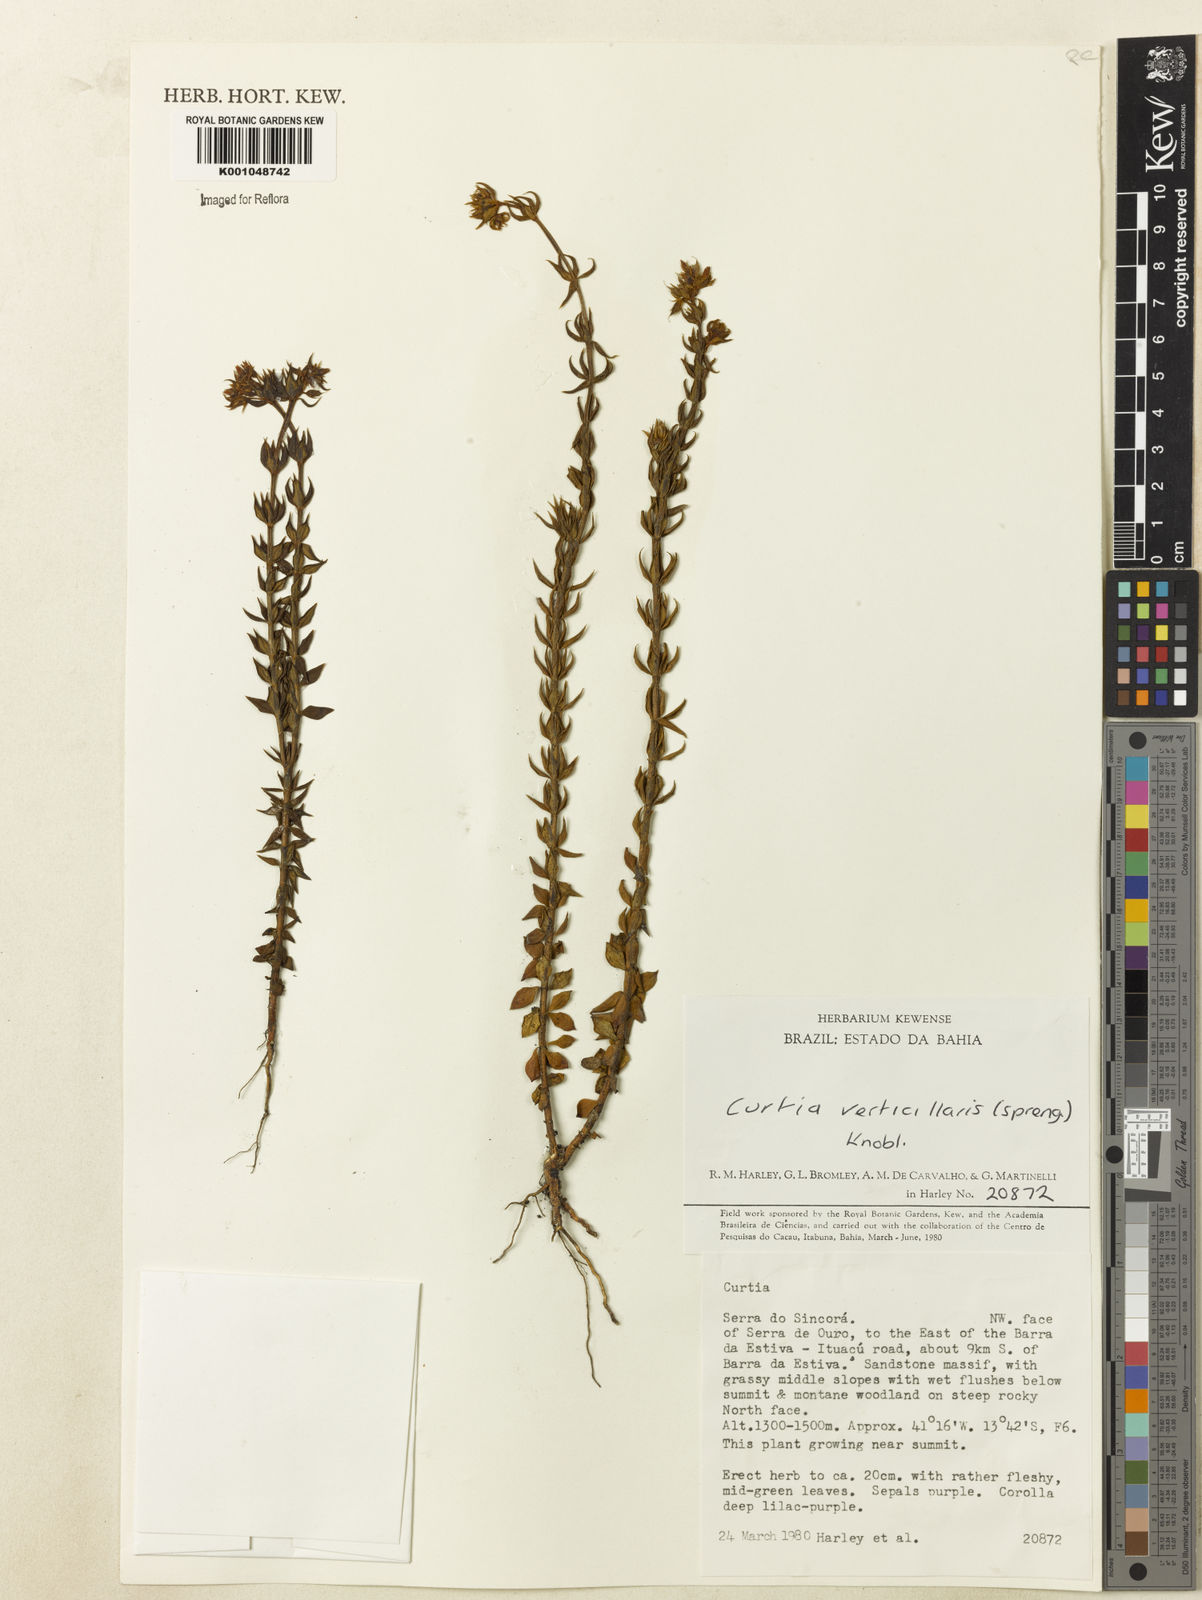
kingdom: Plantae
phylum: Tracheophyta
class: Magnoliopsida
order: Gentianales
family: Gentianaceae
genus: Curtia
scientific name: Curtia verticillaris
